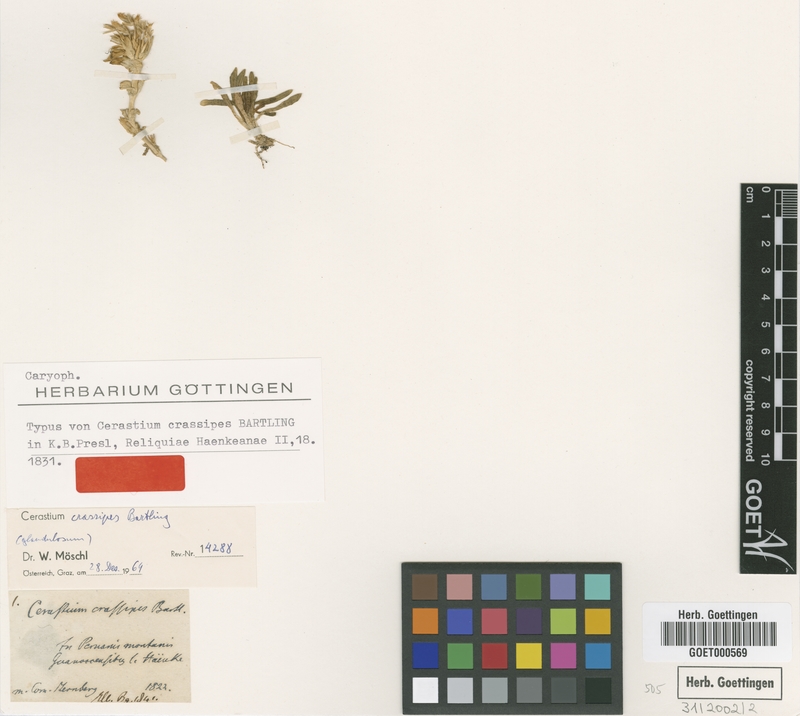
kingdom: Plantae
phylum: Tracheophyta
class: Magnoliopsida
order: Caryophyllales
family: Caryophyllaceae
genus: Cerastium
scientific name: Cerastium crassipes
